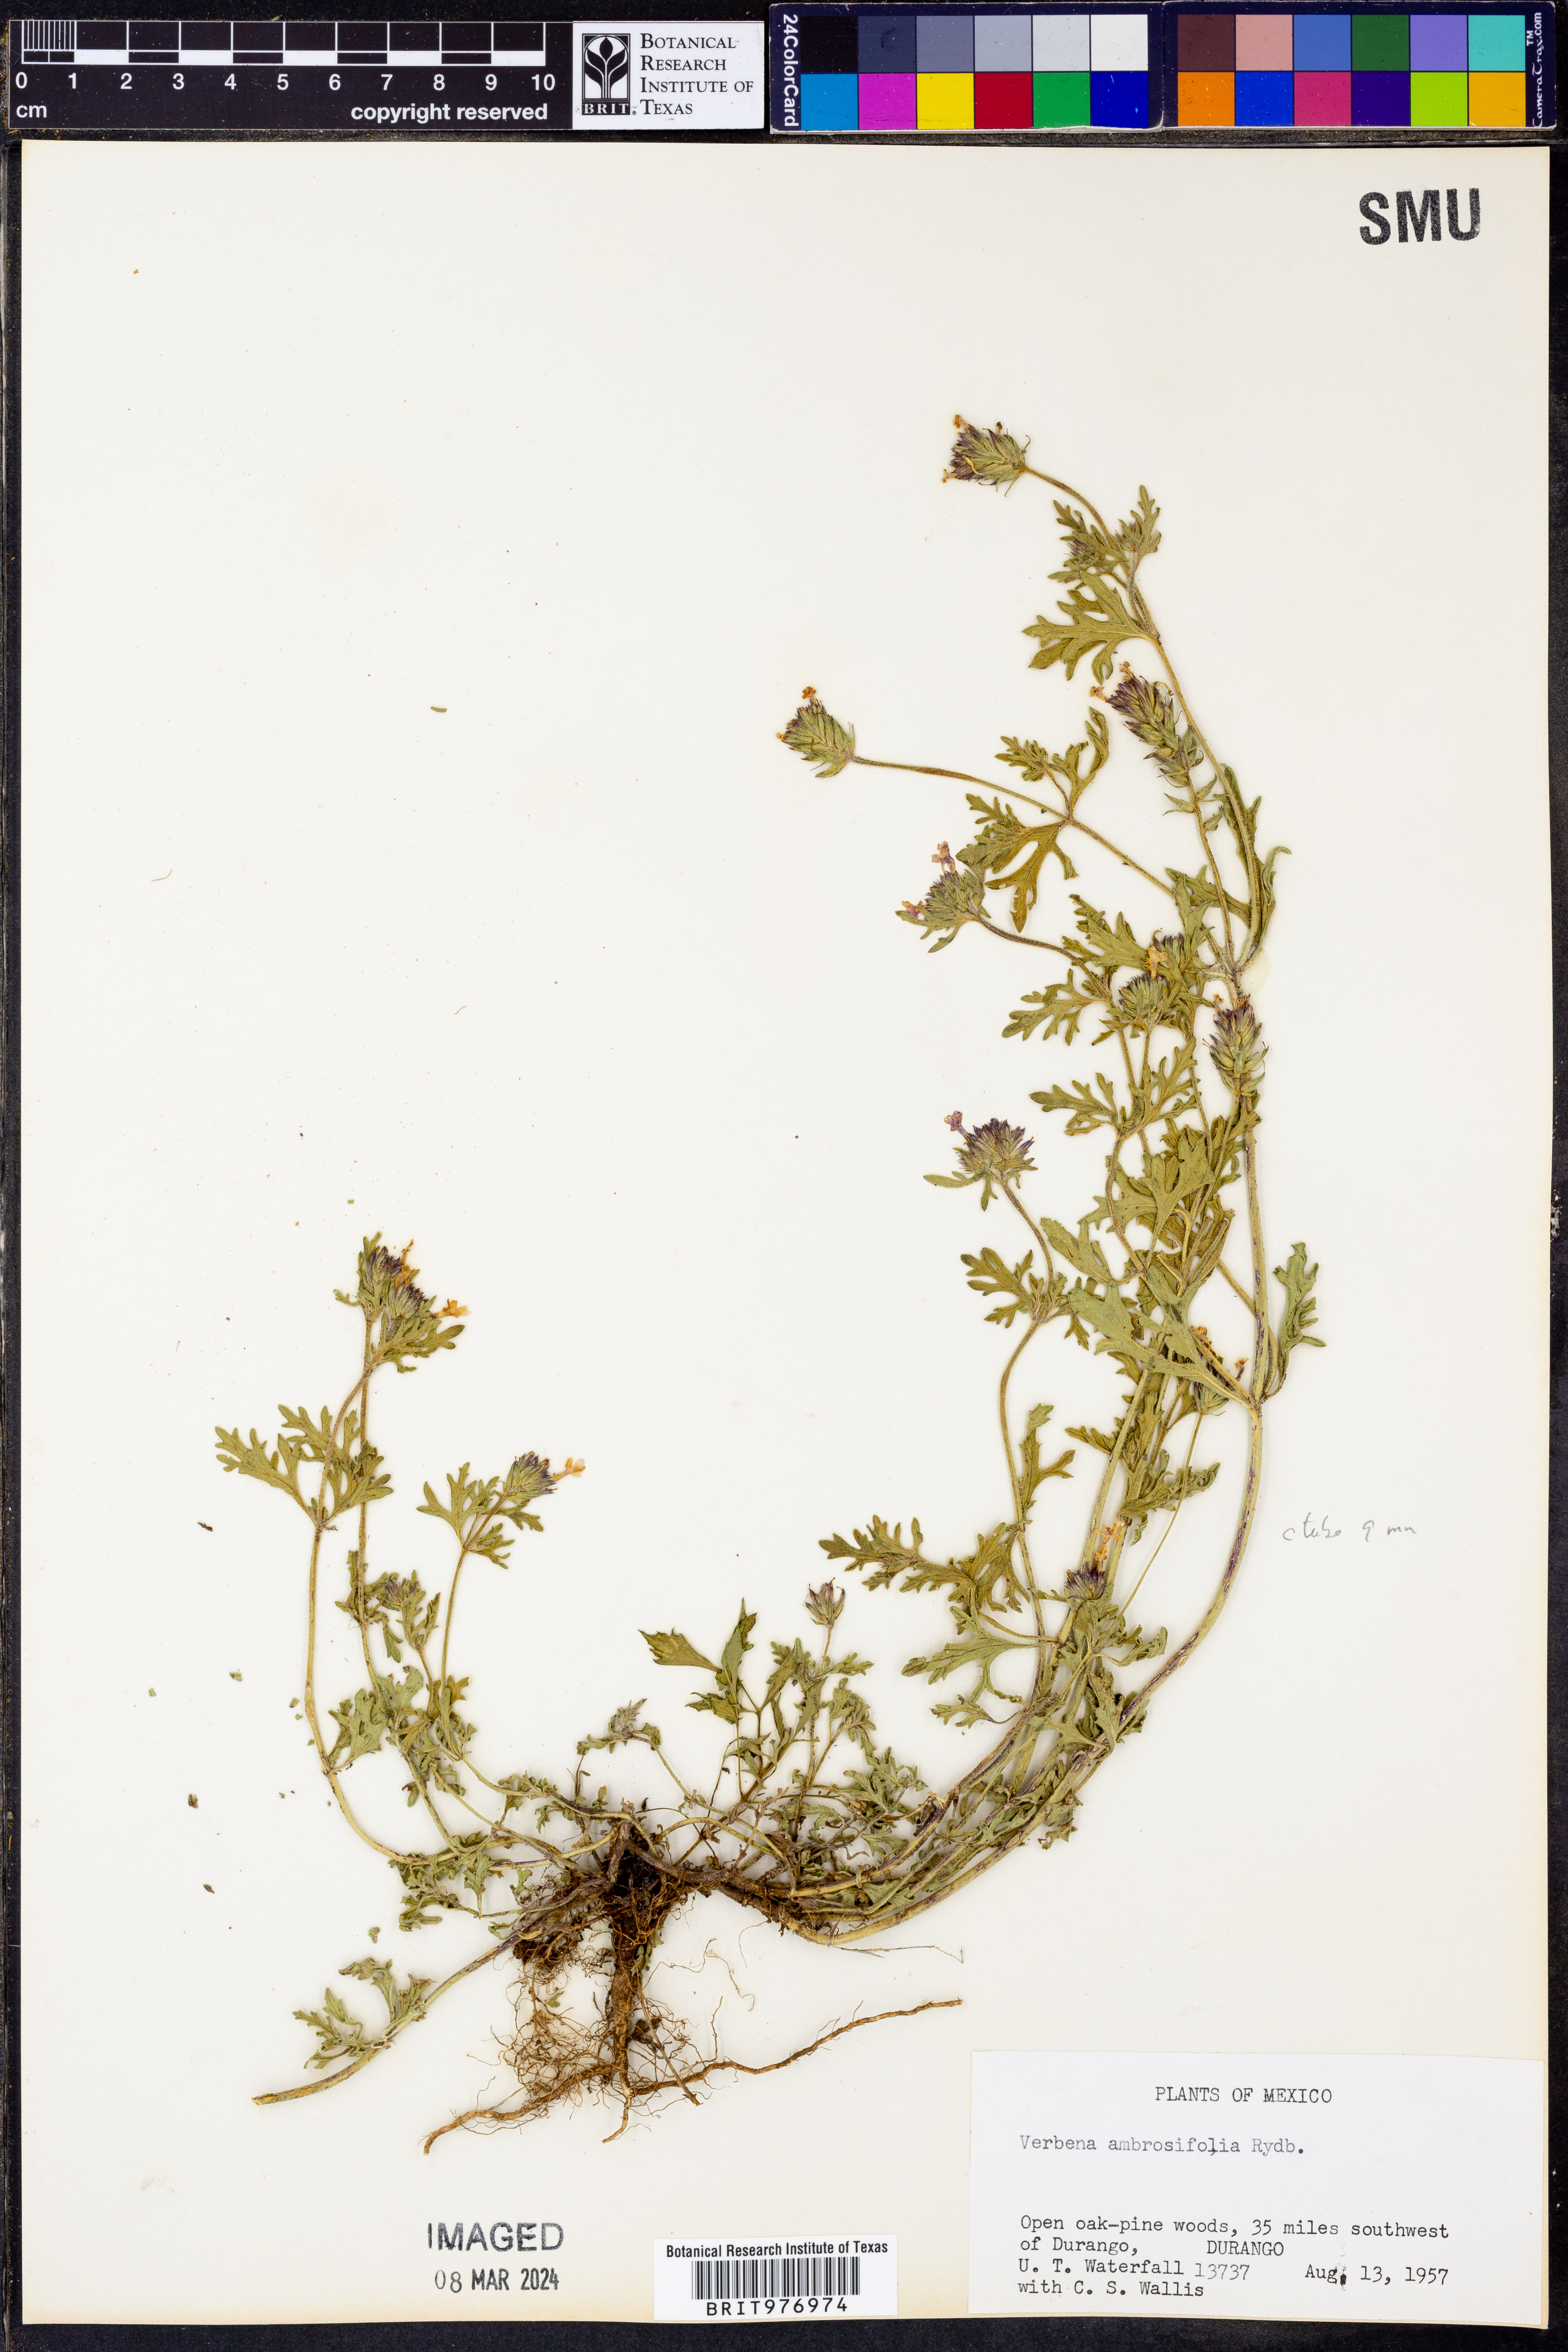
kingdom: Plantae
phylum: Tracheophyta
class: Magnoliopsida
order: Lamiales
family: Verbenaceae
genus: Verbena
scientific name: Verbena
